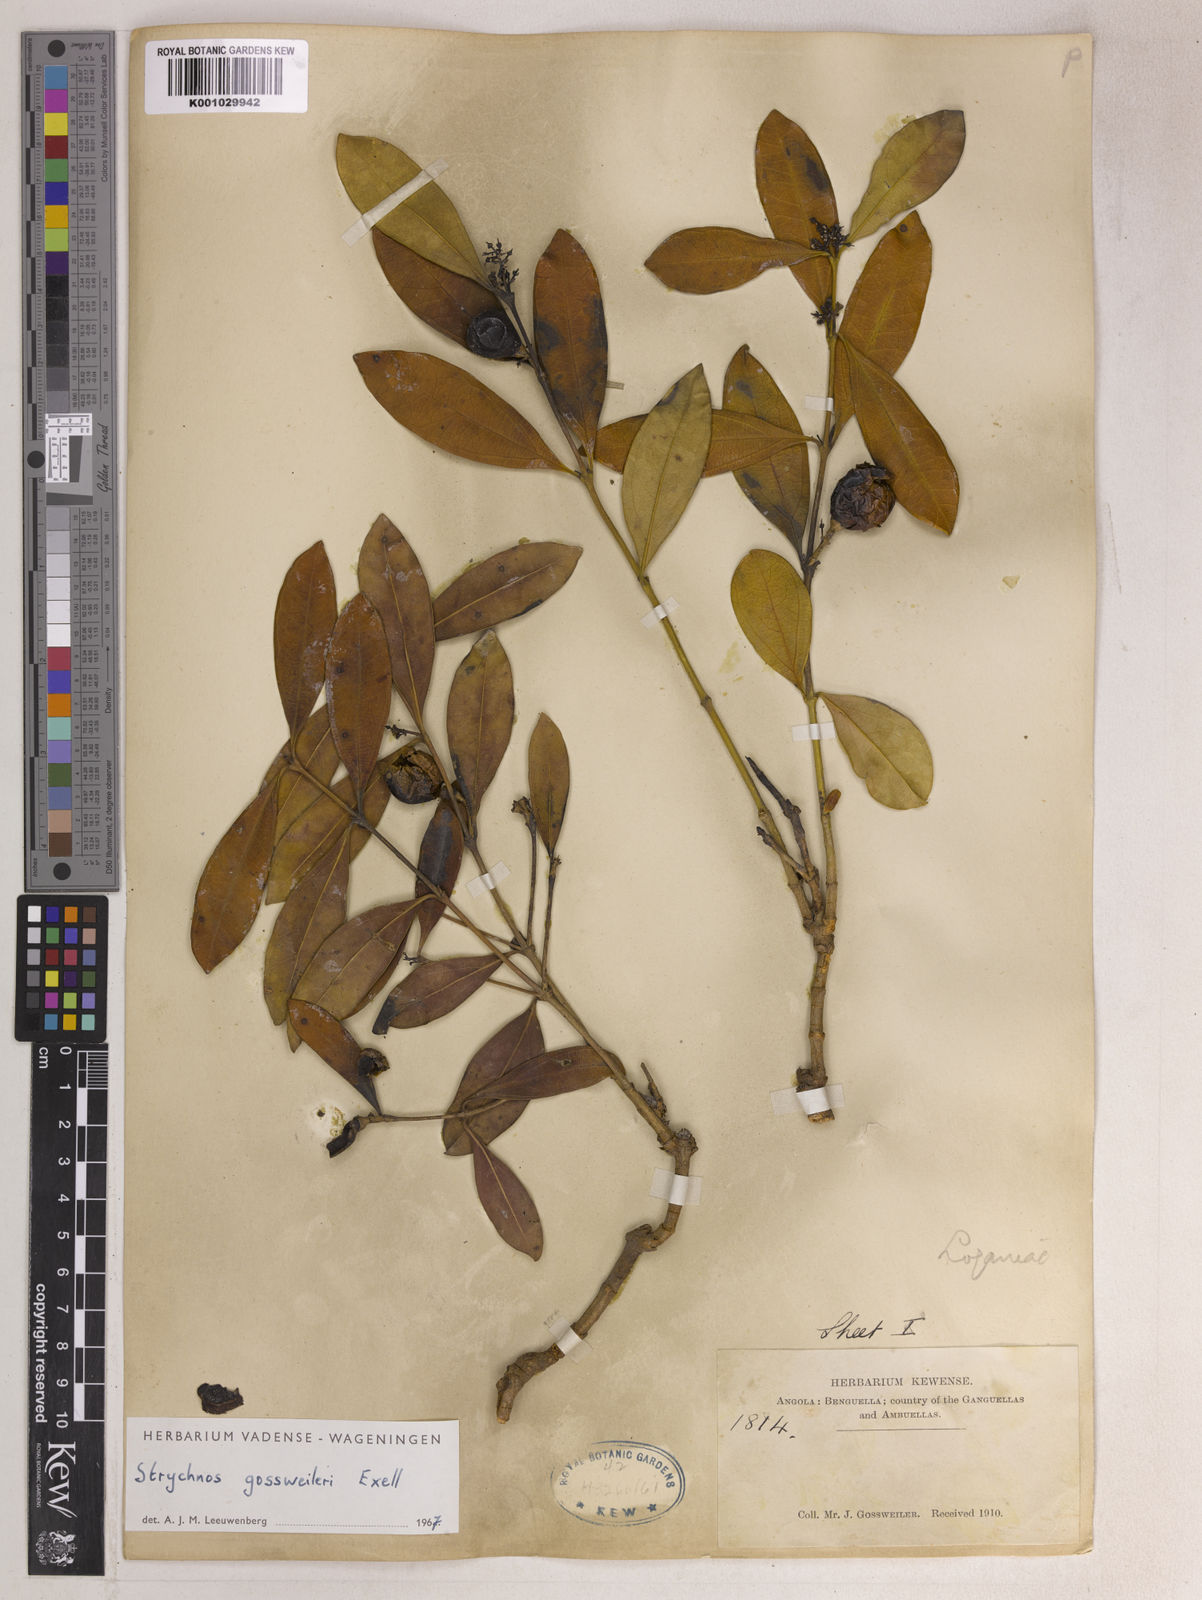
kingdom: Plantae
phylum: Tracheophyta
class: Magnoliopsida
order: Gentianales
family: Loganiaceae
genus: Strychnos
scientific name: Strychnos gossweileri
